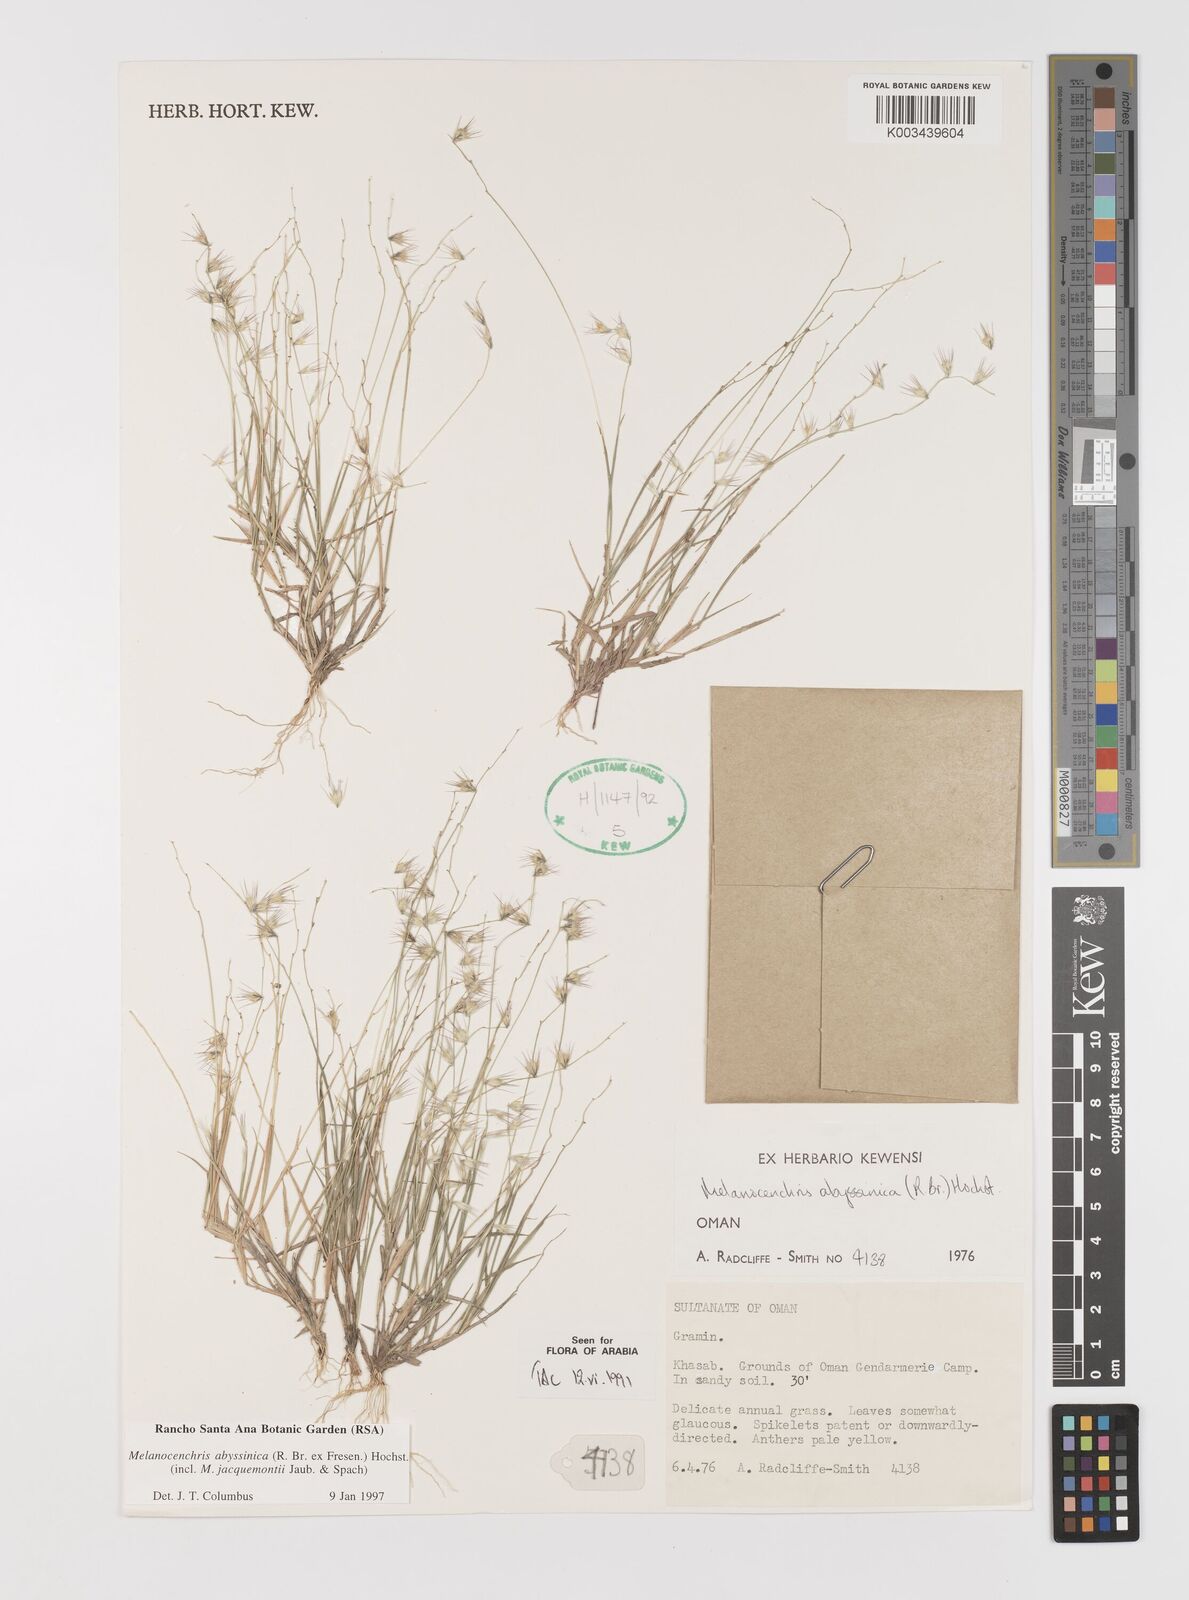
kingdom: Plantae
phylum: Tracheophyta
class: Liliopsida
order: Poales
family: Poaceae
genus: Melanocenchris
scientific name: Melanocenchris abyssinica
